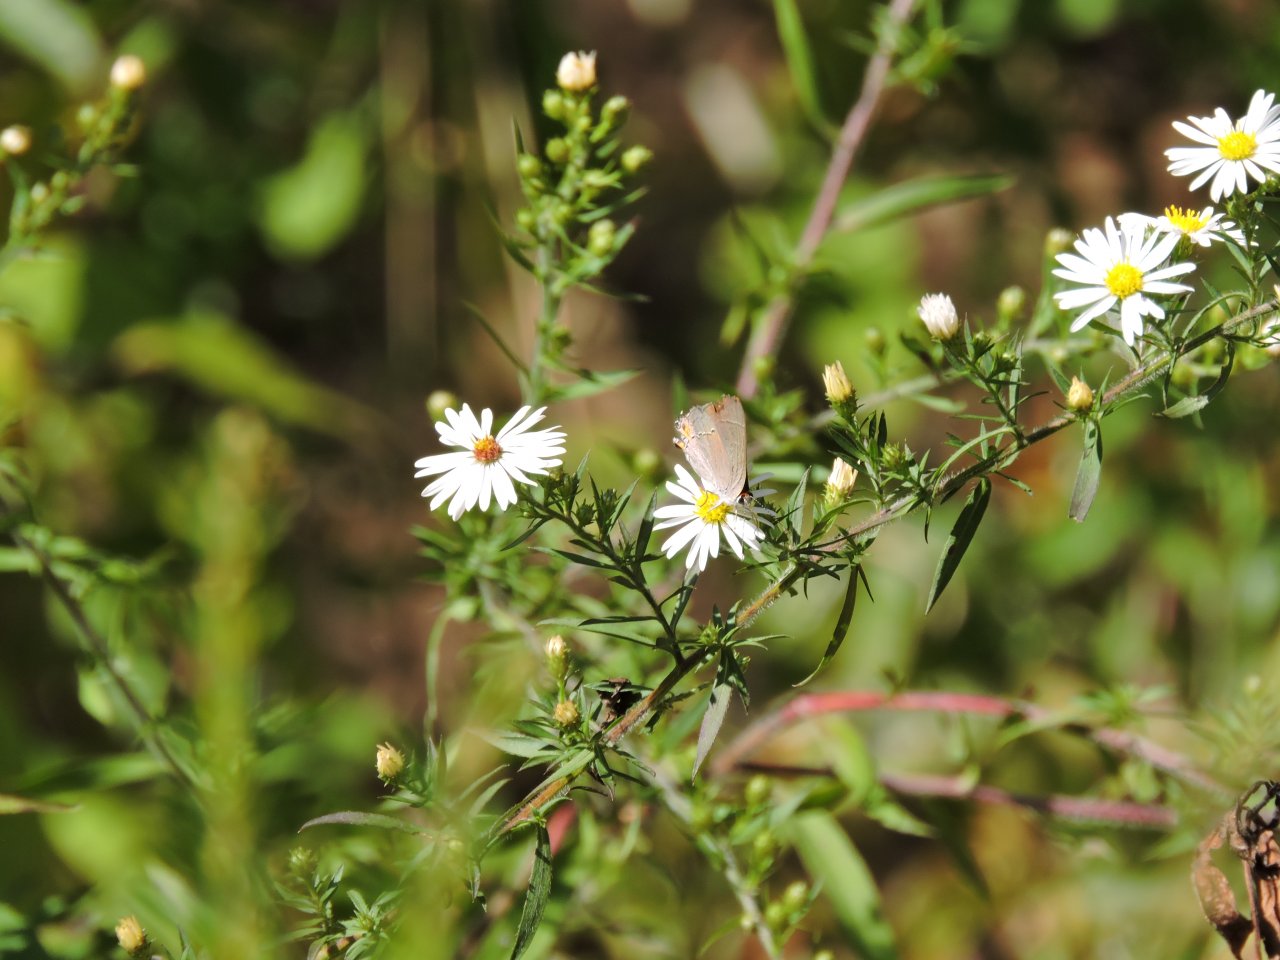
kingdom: Animalia
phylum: Arthropoda
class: Insecta
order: Lepidoptera
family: Lycaenidae
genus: Strymon
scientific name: Strymon melinus
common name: Gray Hairstreak
